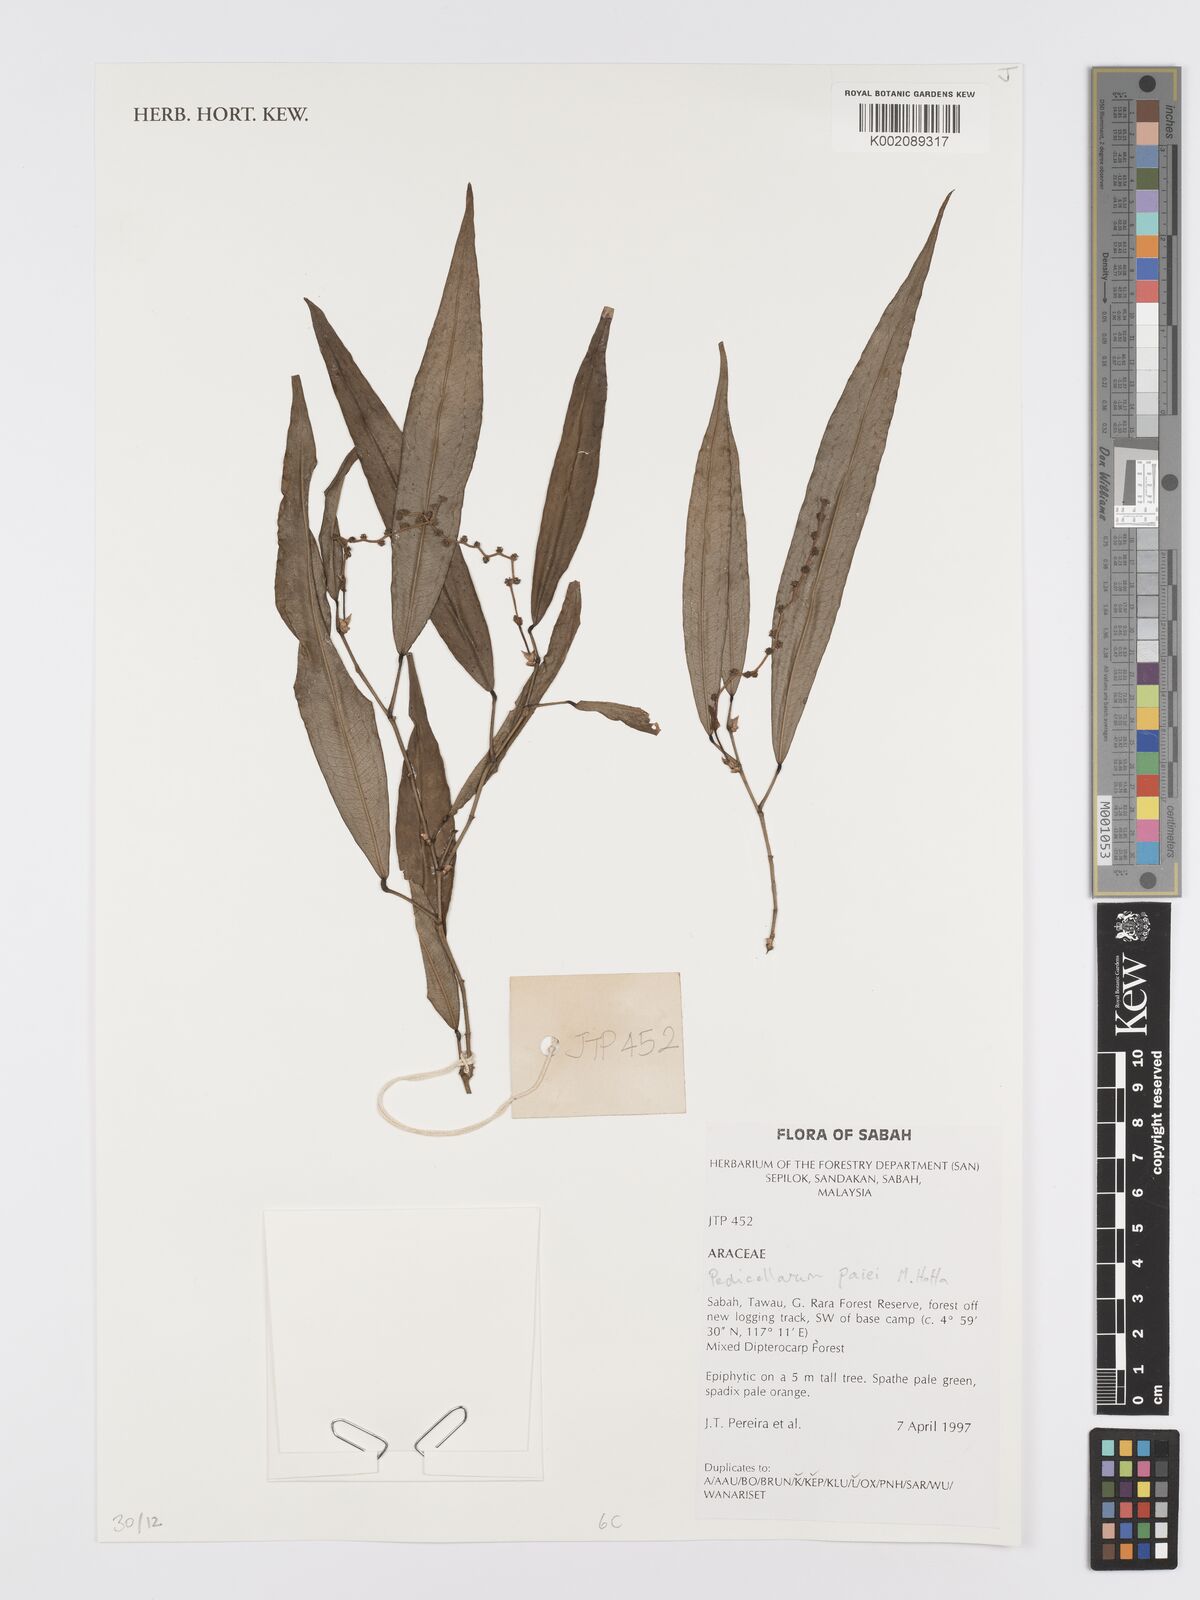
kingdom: Plantae
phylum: Tracheophyta
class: Liliopsida
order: Alismatales
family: Araceae
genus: Pothos
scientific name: Pothos paiei
